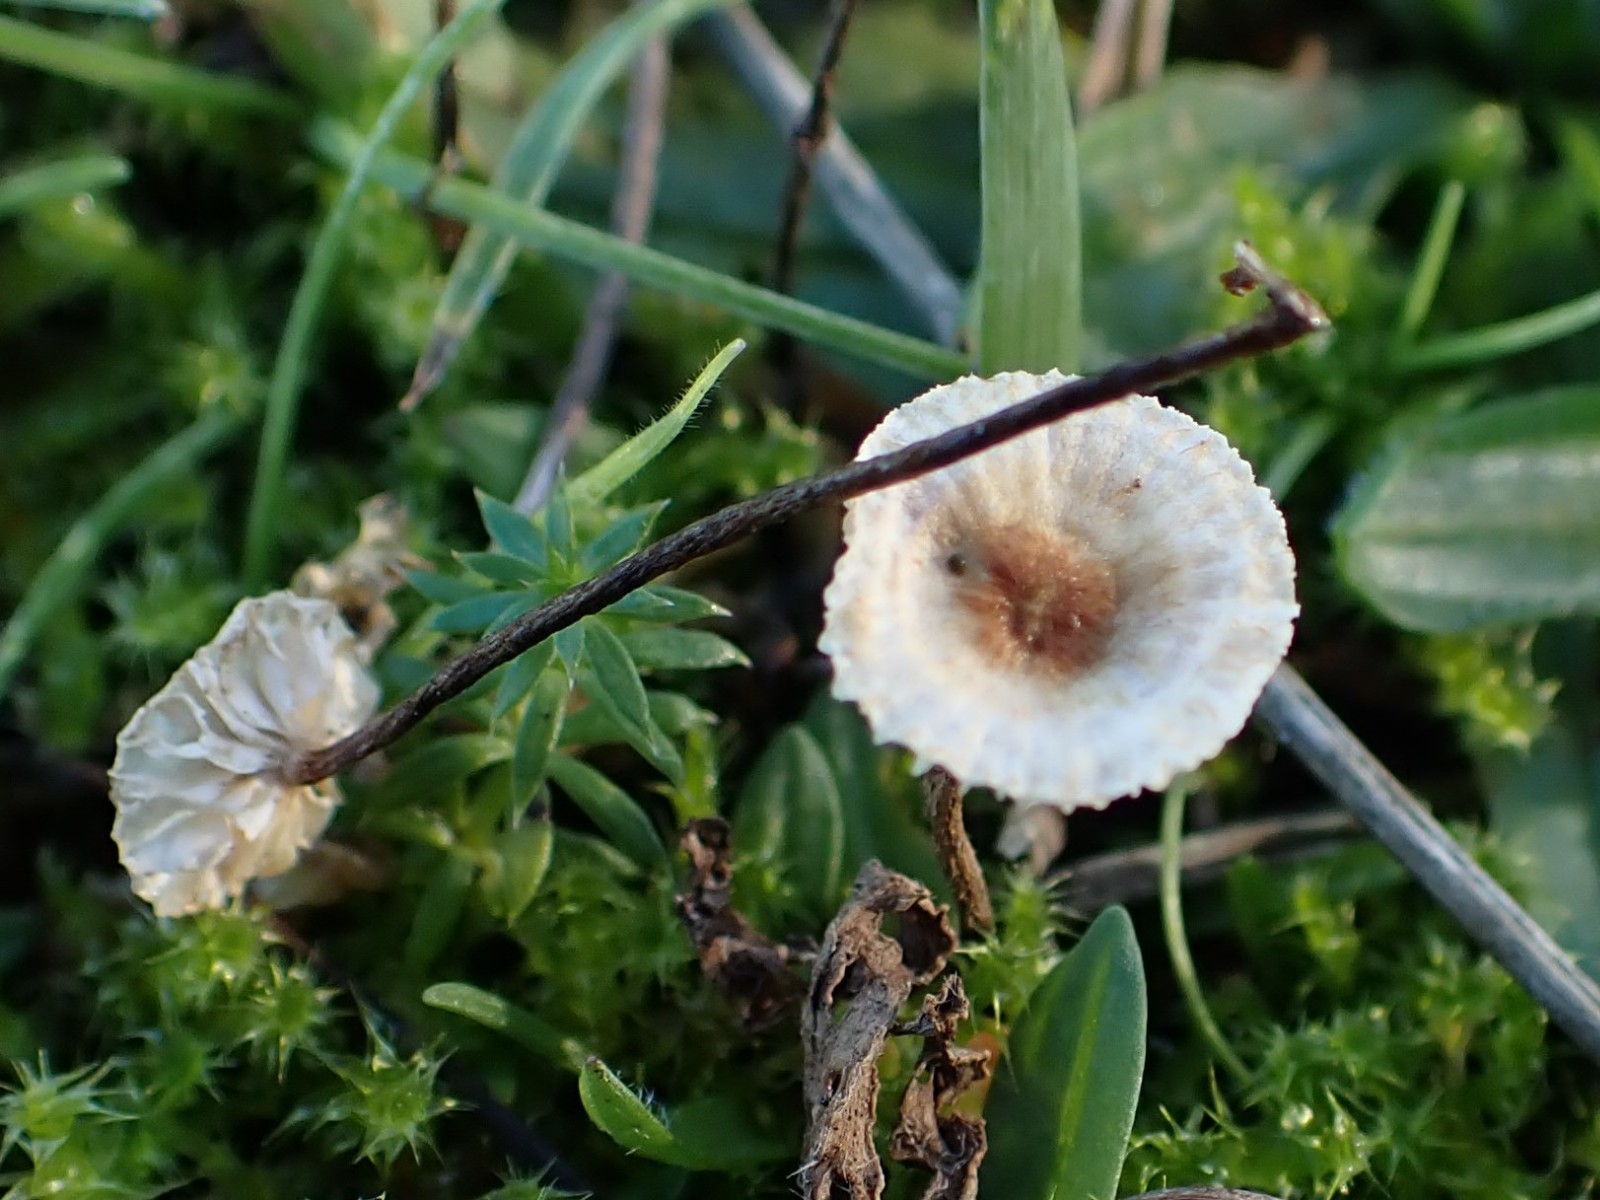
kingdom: Fungi
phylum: Basidiomycota
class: Agaricomycetes
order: Agaricales
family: Marasmiaceae
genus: Crinipellis
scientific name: Crinipellis scabella
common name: børstefod
